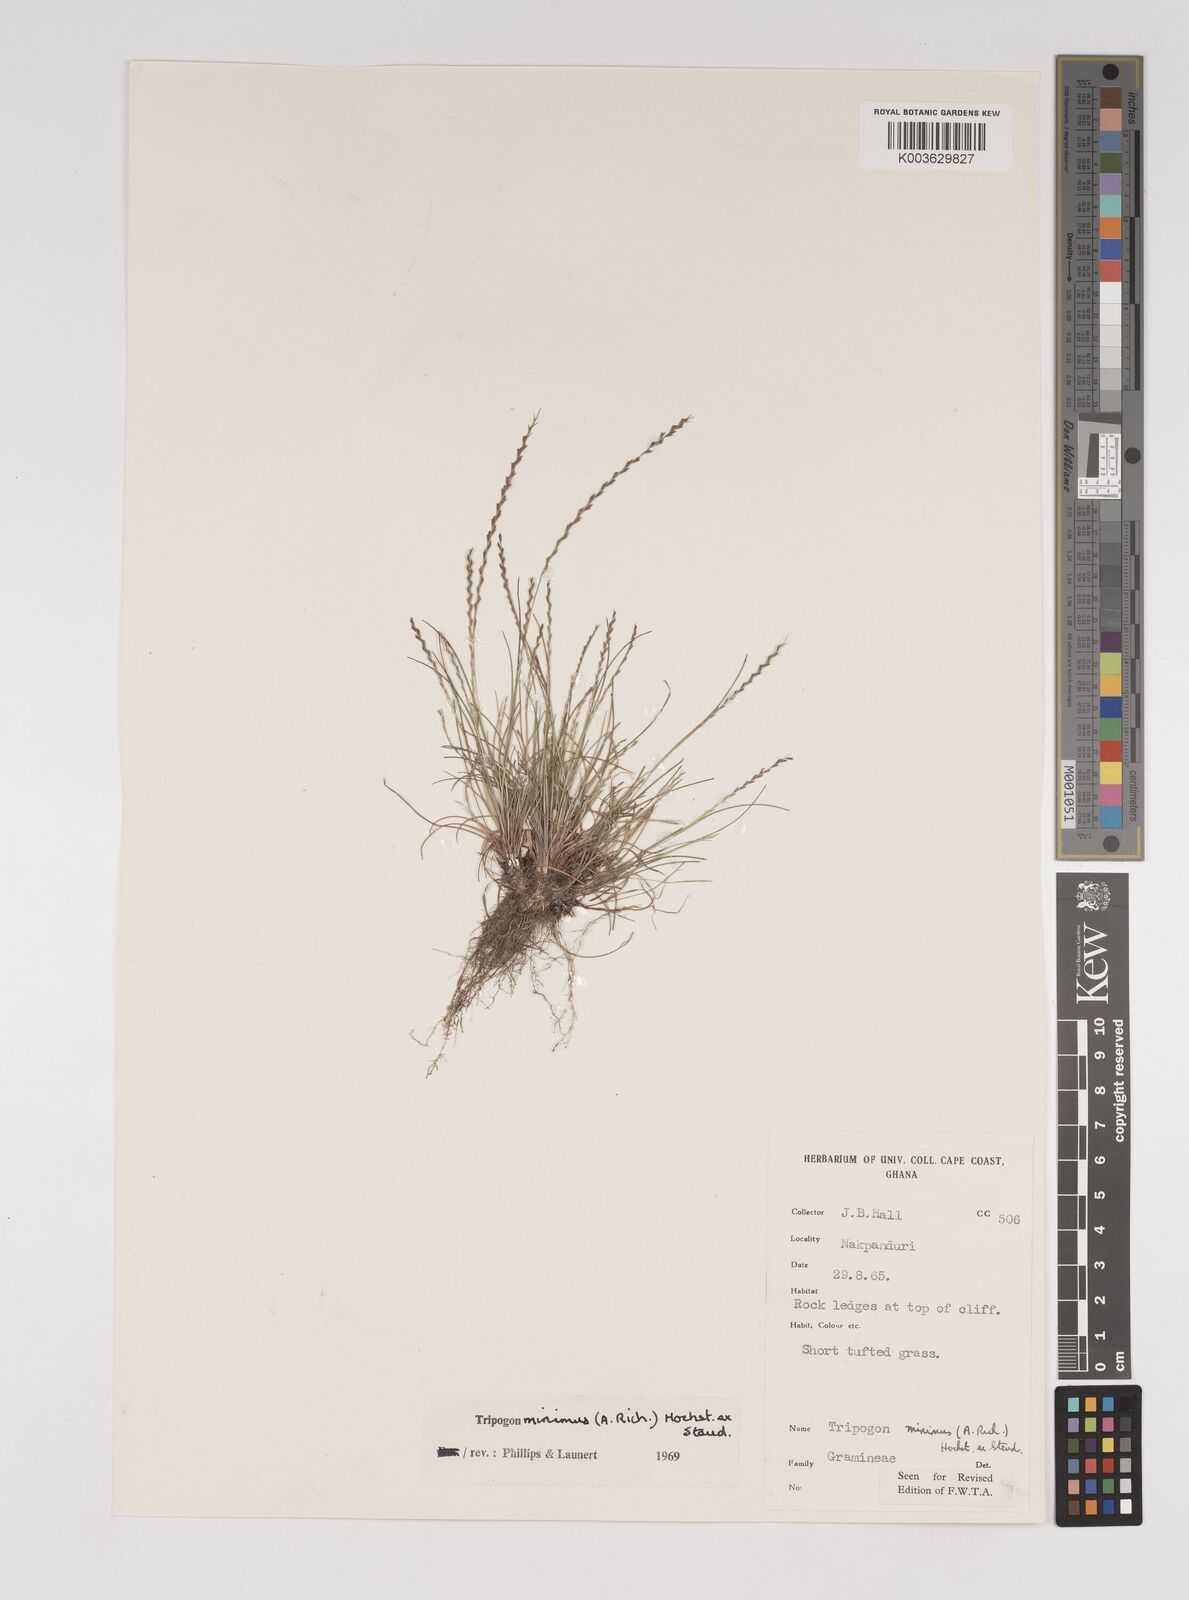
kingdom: Plantae
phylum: Tracheophyta
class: Liliopsida
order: Poales
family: Poaceae
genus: Tripogonella
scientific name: Tripogonella minima
